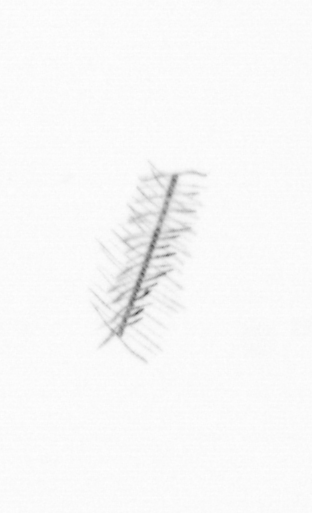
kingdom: Chromista
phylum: Ochrophyta
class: Bacillariophyceae
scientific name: Bacillariophyceae
